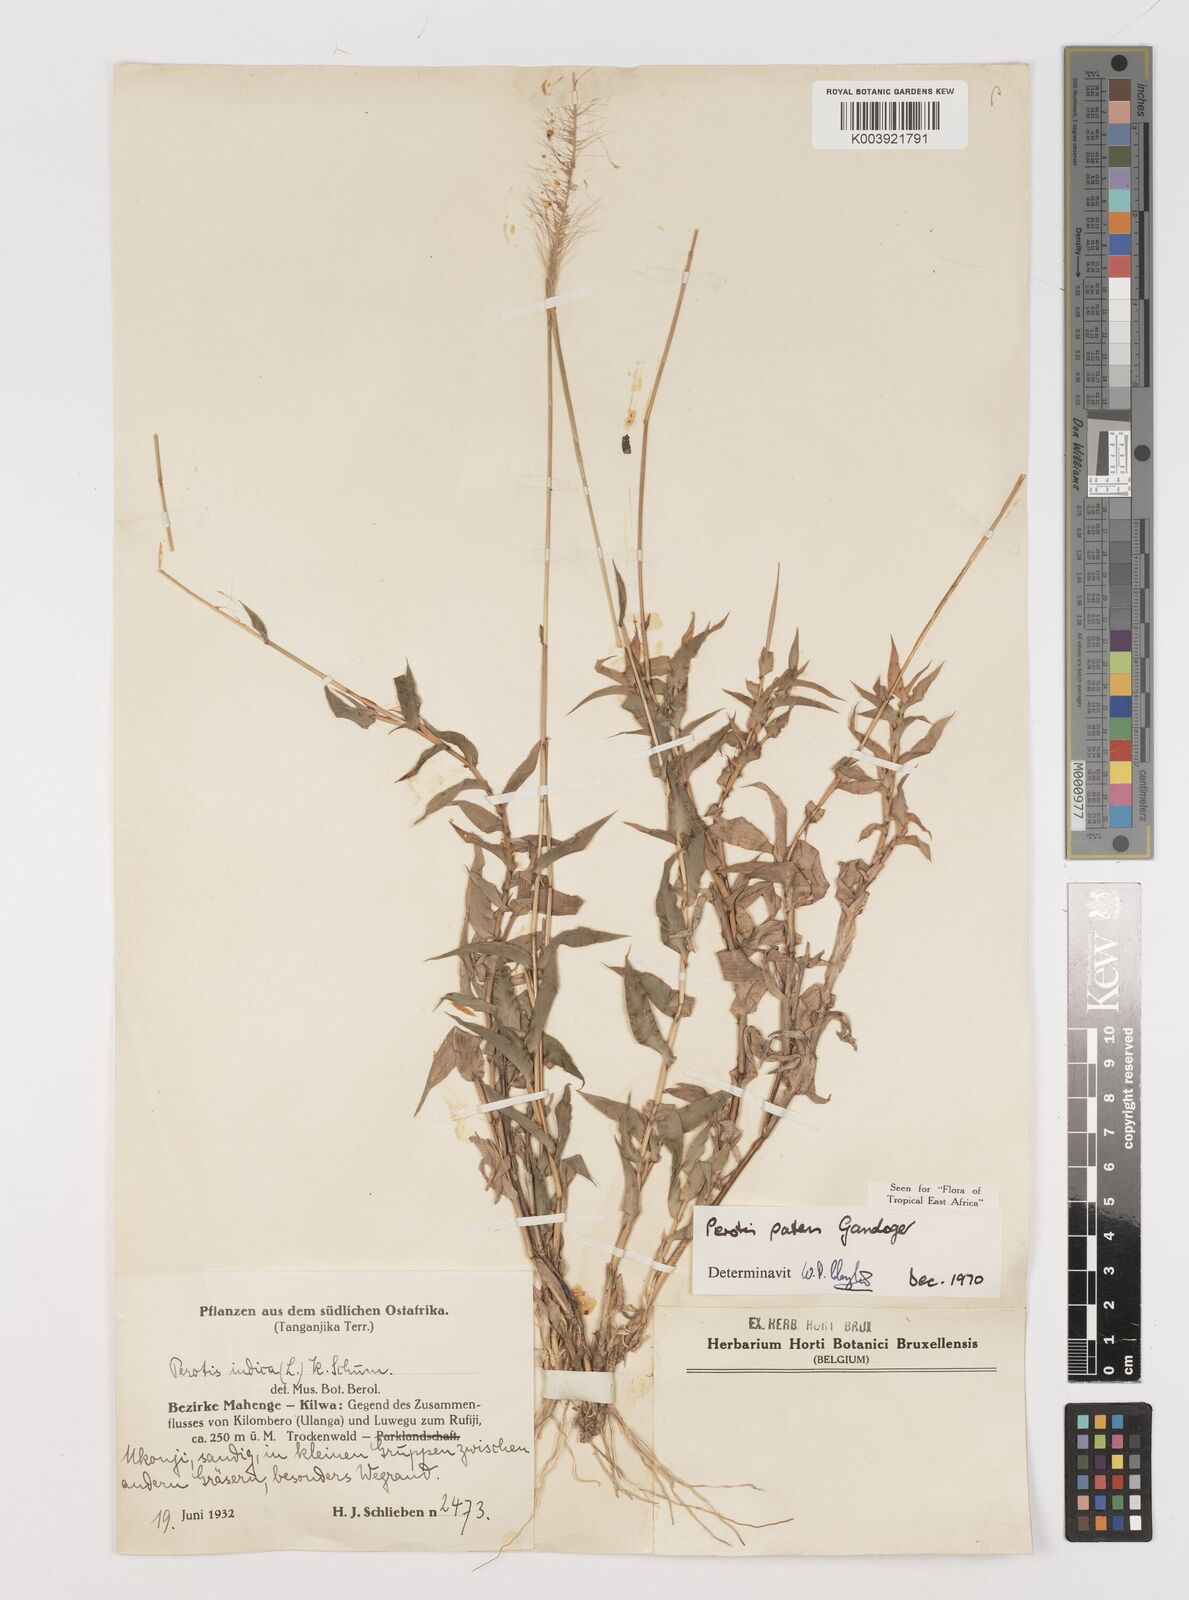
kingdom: Plantae
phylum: Tracheophyta
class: Liliopsida
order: Poales
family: Poaceae
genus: Perotis
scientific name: Perotis patens
